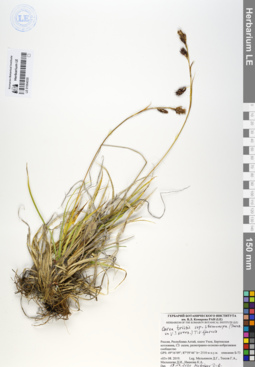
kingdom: Plantae
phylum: Tracheophyta
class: Liliopsida
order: Poales
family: Cyperaceae
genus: Carex
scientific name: Carex stenocarpa
